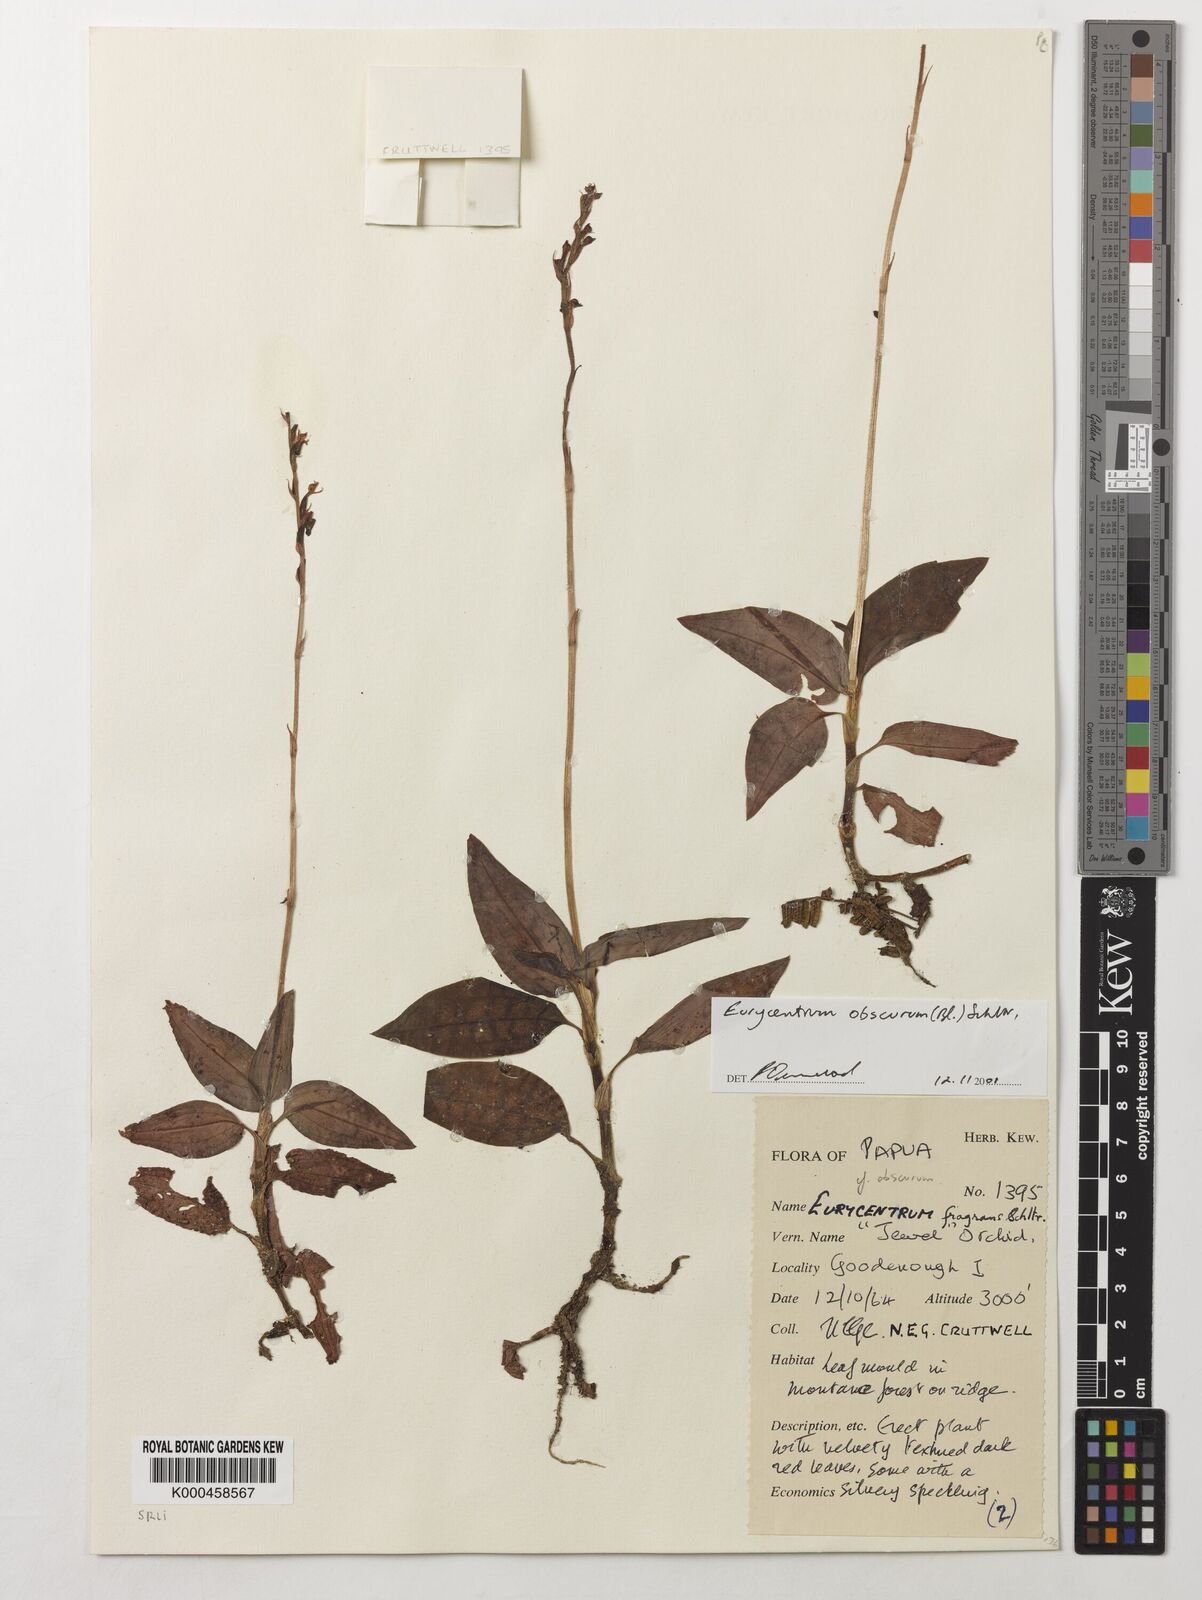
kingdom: Plantae
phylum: Tracheophyta
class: Liliopsida
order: Asparagales
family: Orchidaceae
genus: Eurycentrum
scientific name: Eurycentrum obscurum
